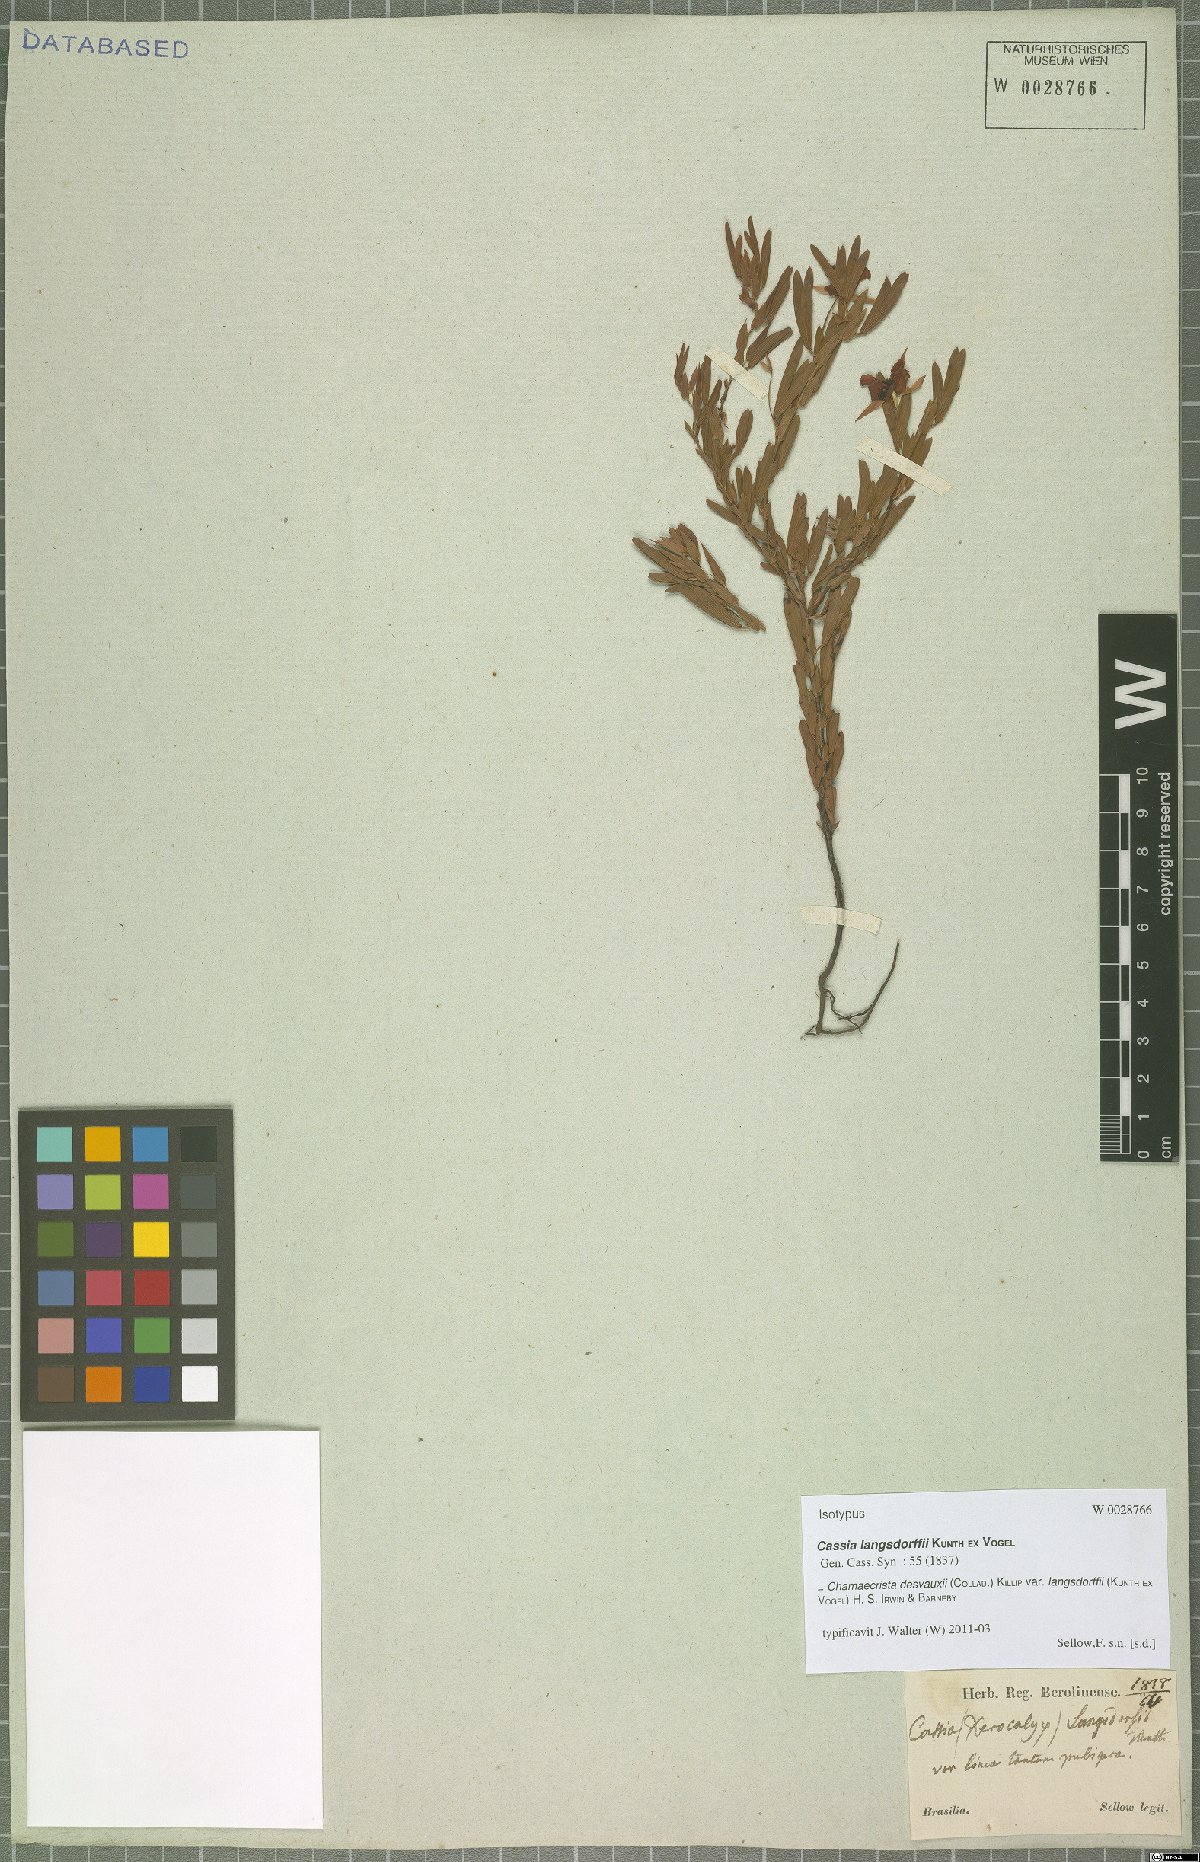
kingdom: Plantae
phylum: Tracheophyta
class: Magnoliopsida
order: Fabales
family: Fabaceae
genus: Chamaecrista
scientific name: Chamaecrista langsdorffii
